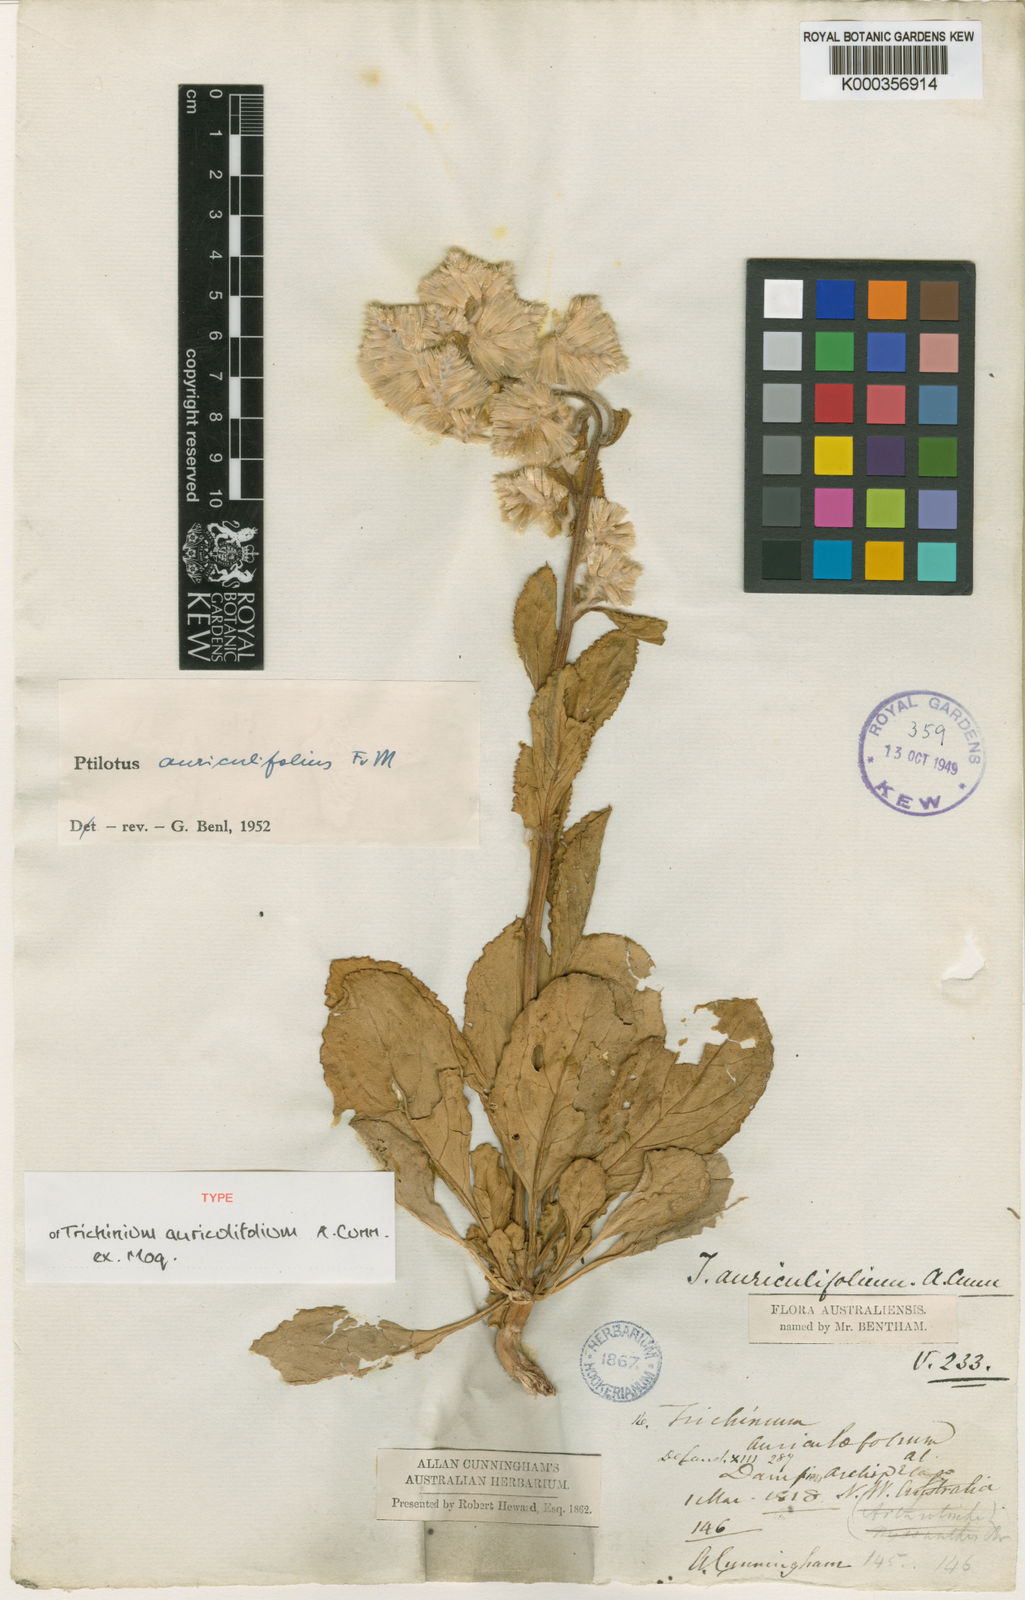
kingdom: Plantae
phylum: Tracheophyta
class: Magnoliopsida
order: Caryophyllales
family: Amaranthaceae
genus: Ptilotus
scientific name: Ptilotus auriculifolius
